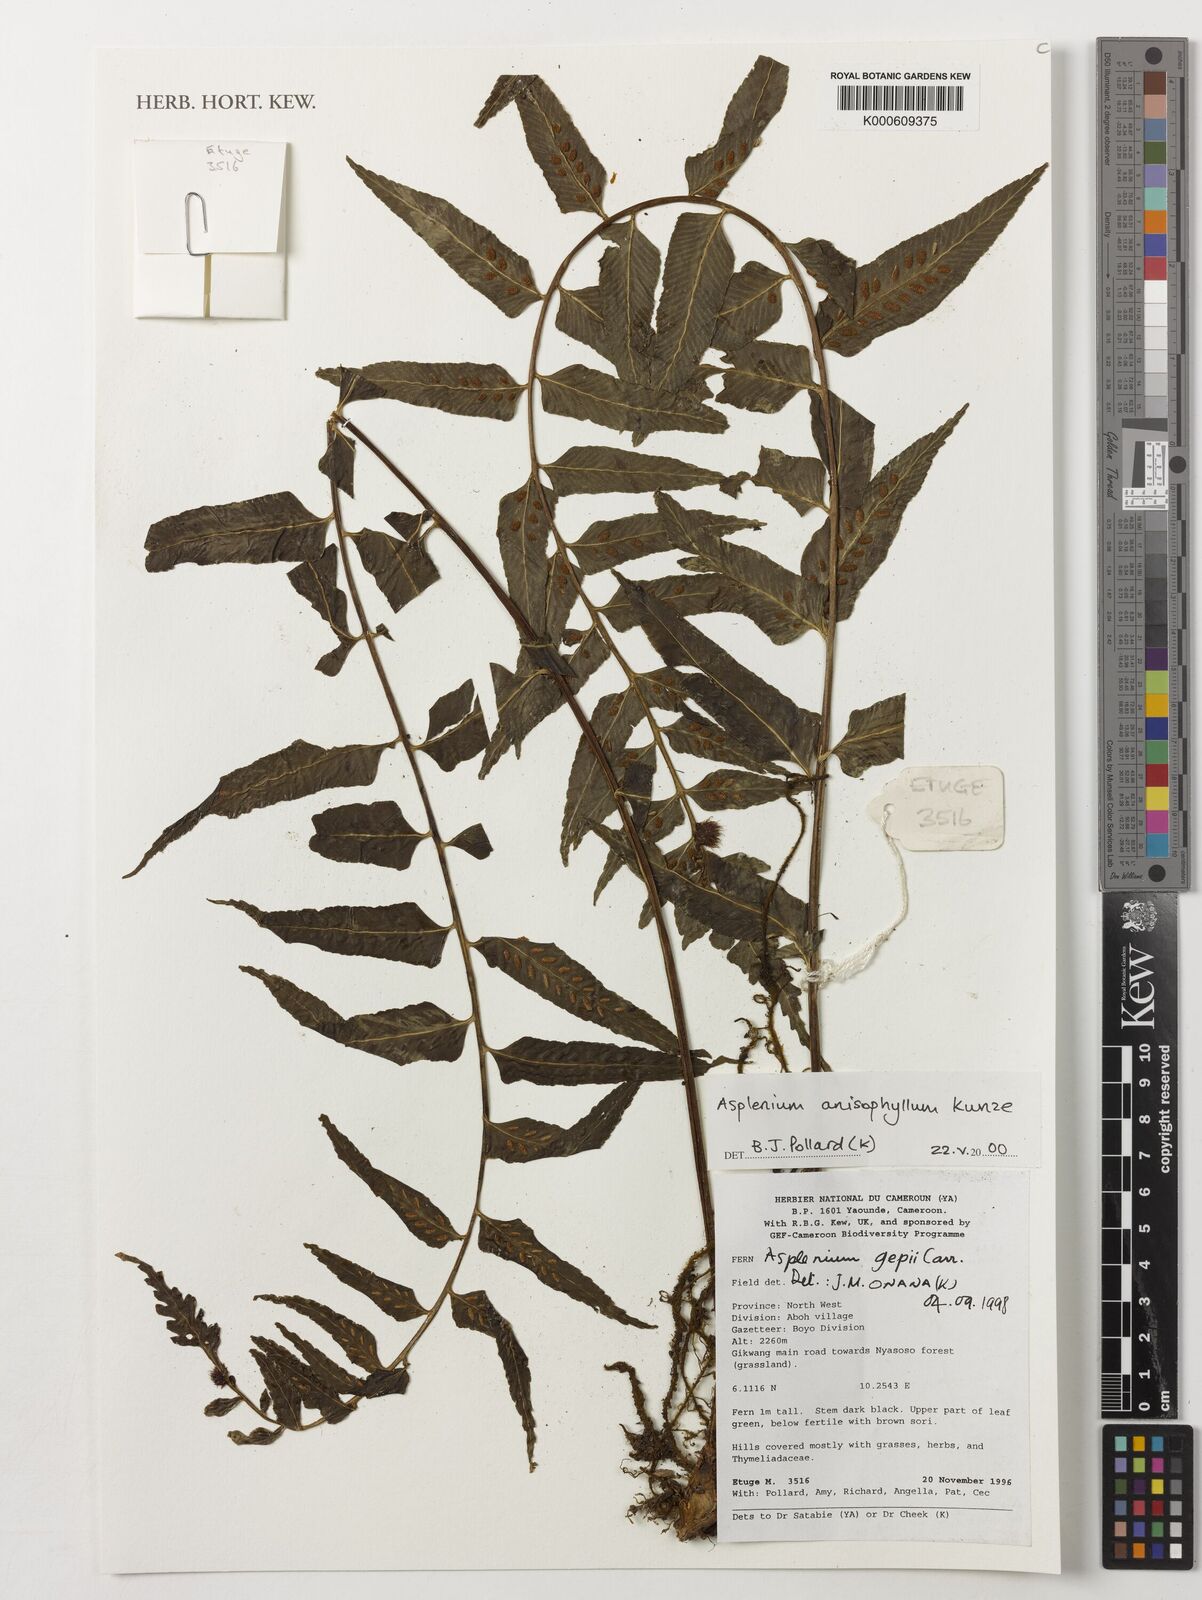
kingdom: Plantae
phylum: Tracheophyta
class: Polypodiopsida
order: Polypodiales
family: Aspleniaceae
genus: Asplenium
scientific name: Asplenium anisophyllum
